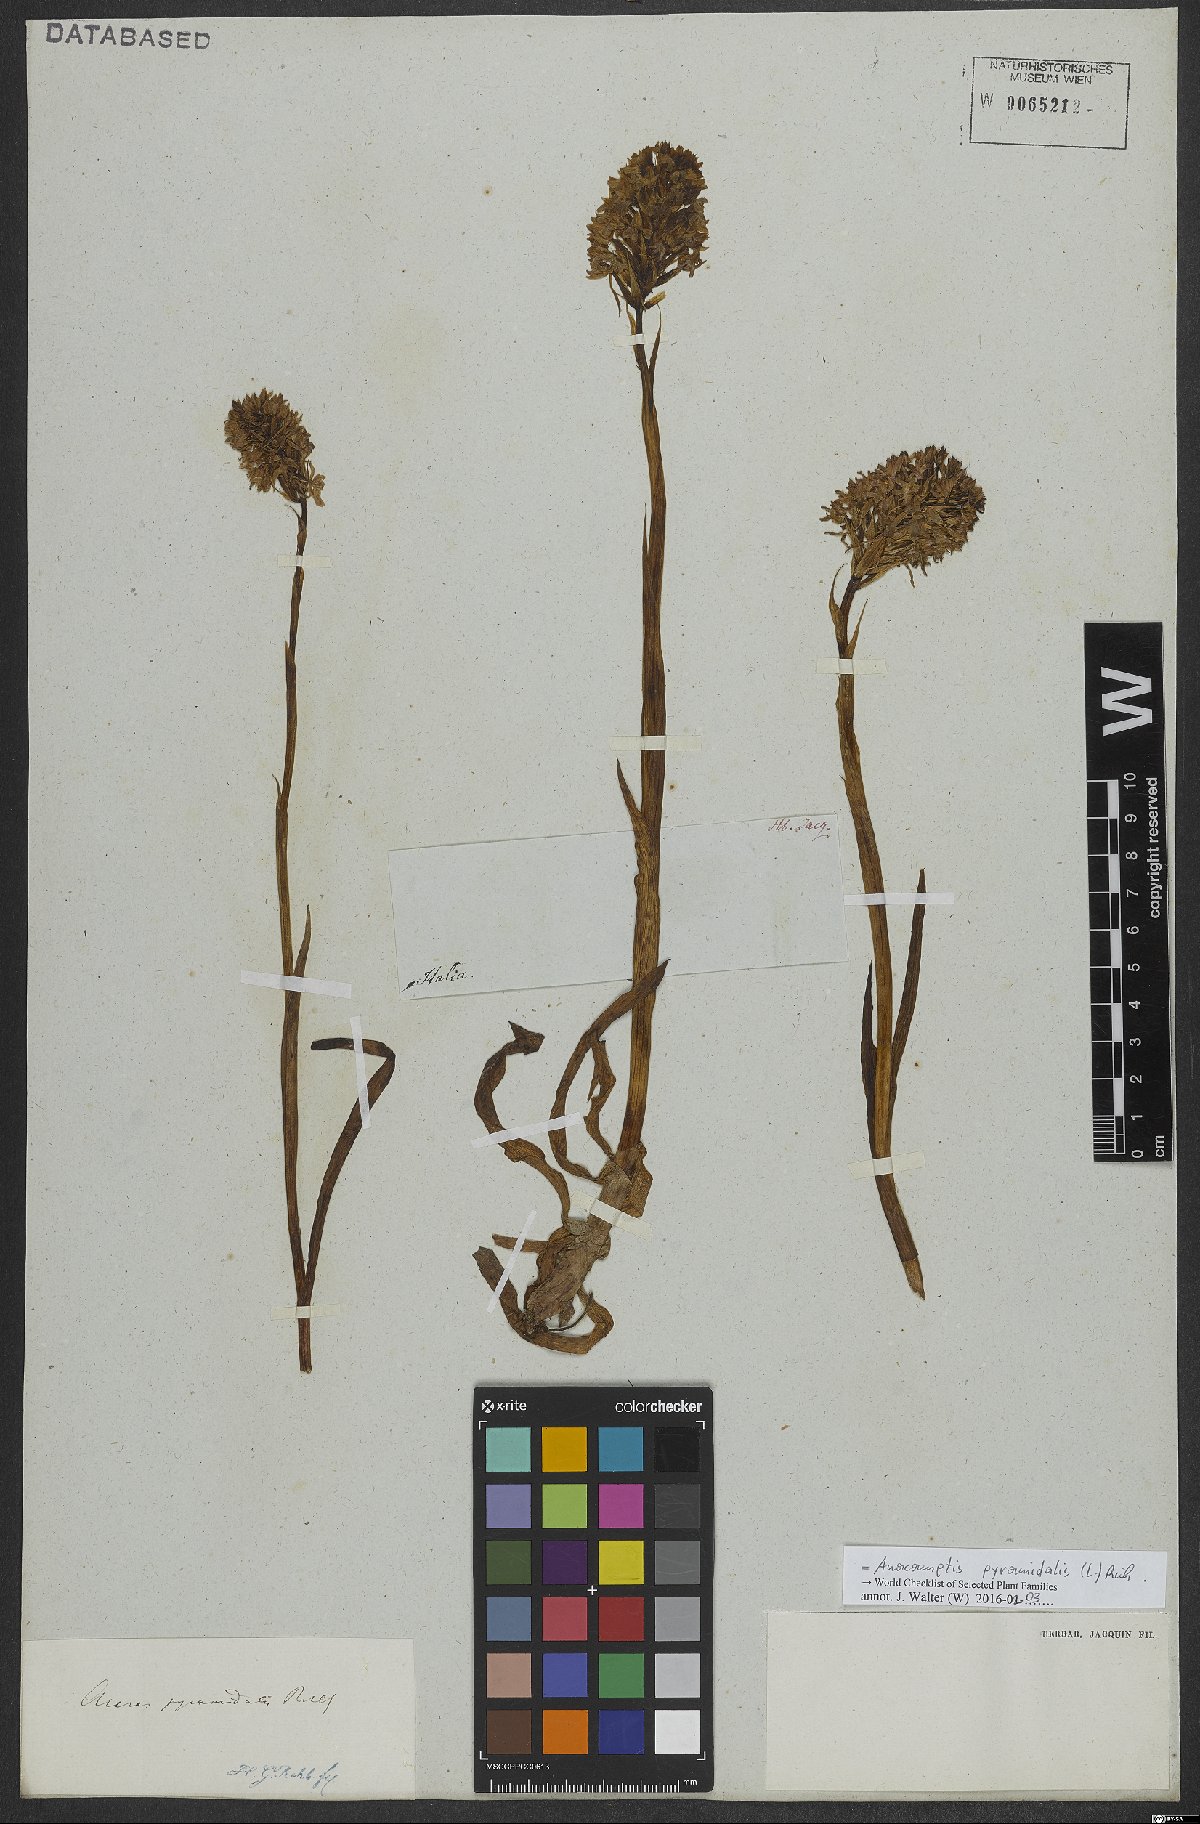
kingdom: Plantae
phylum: Tracheophyta
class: Liliopsida
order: Asparagales
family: Orchidaceae
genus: Anacamptis
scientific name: Anacamptis pyramidalis
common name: Pyramidal orchid
